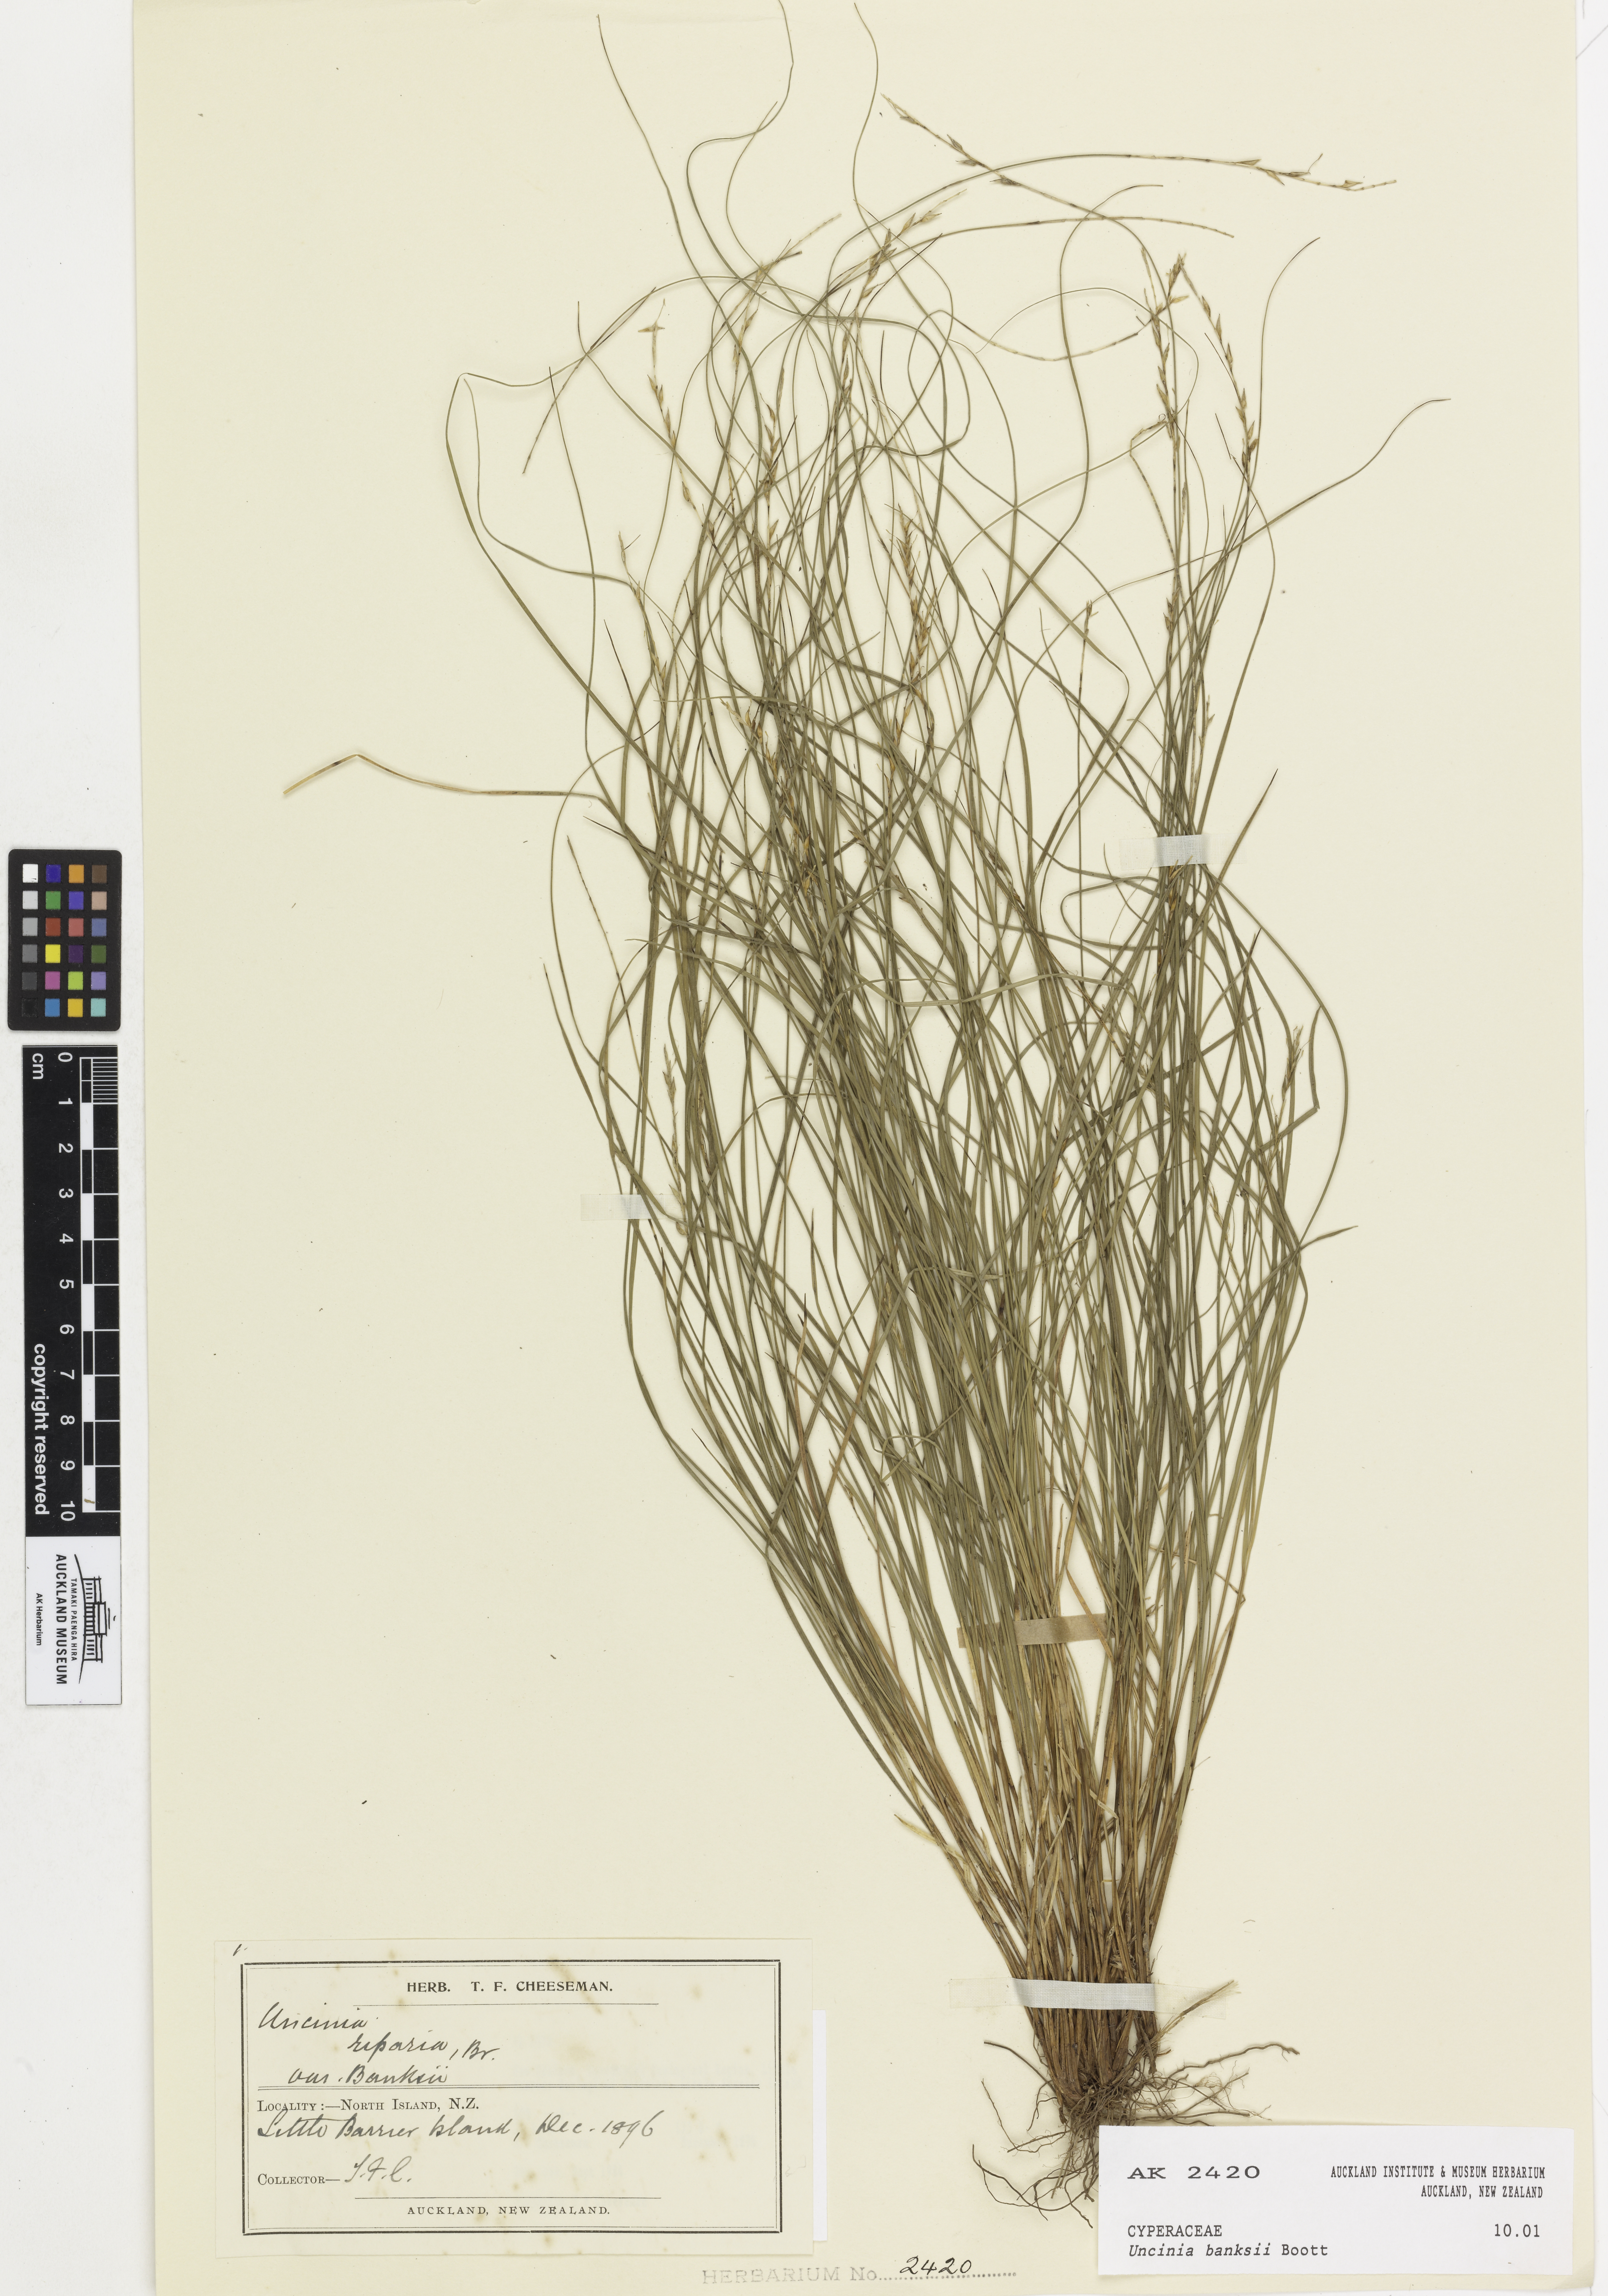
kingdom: Plantae
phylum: Tracheophyta
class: Liliopsida
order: Poales
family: Cyperaceae
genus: Carex
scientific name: Carex banksiana
